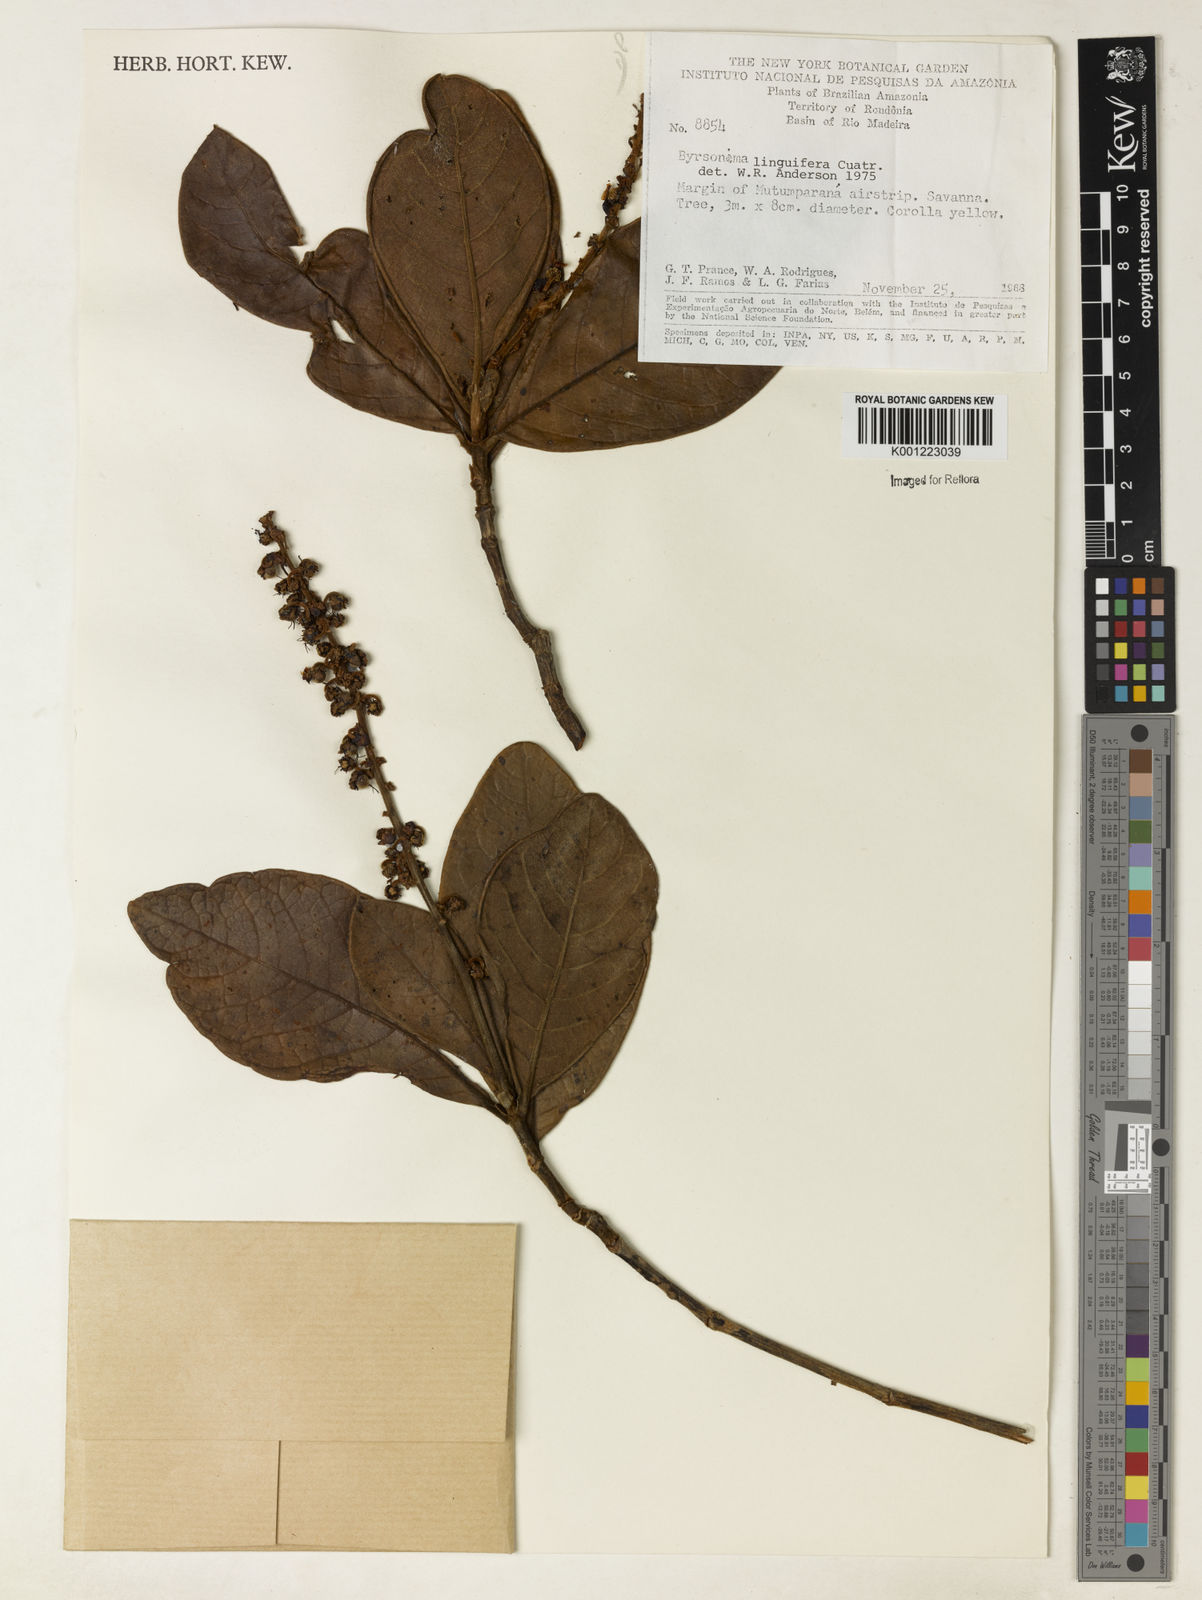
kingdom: Plantae
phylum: Tracheophyta
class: Magnoliopsida
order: Malpighiales
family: Malpighiaceae
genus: Byrsonima
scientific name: Byrsonima linguifera
